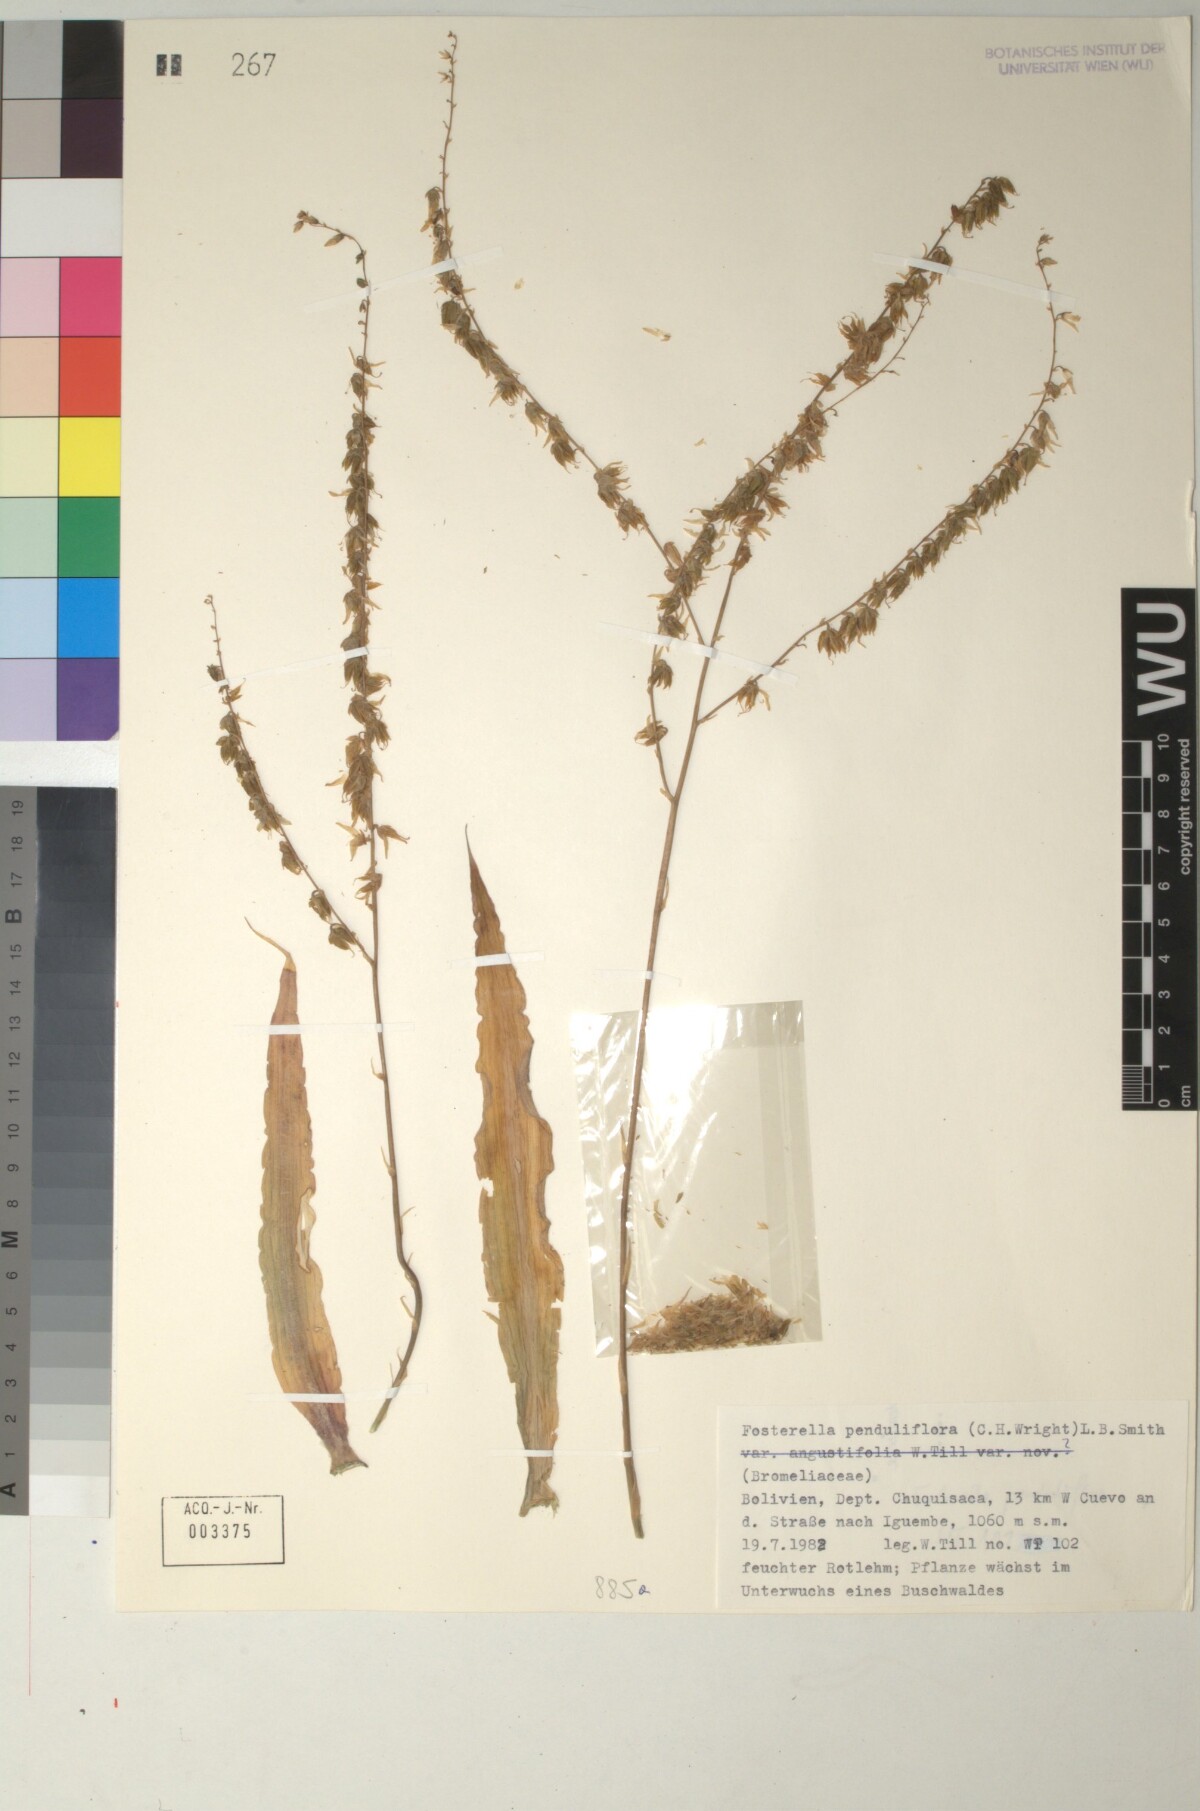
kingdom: Plantae
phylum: Tracheophyta
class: Liliopsida
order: Poales
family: Bromeliaceae
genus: Fosterella
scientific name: Fosterella penduliflora
